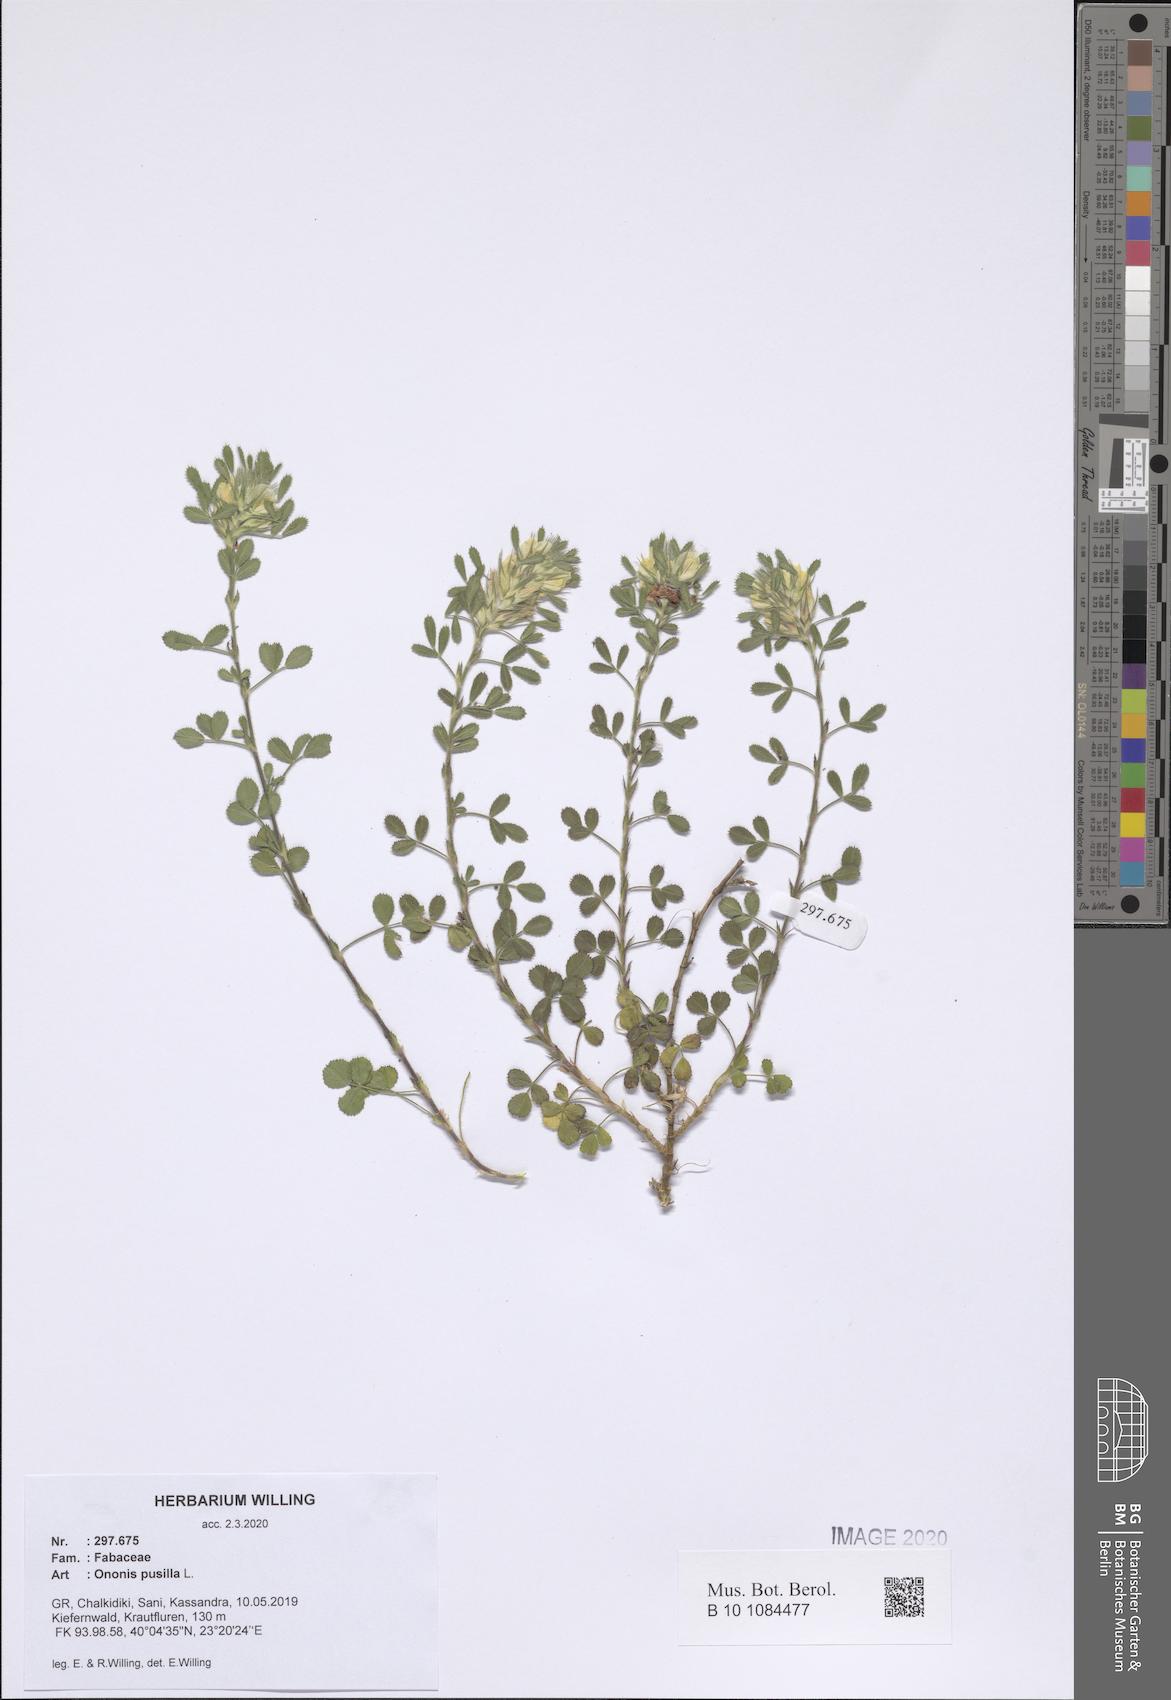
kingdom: Plantae
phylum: Tracheophyta
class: Magnoliopsida
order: Fabales
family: Fabaceae
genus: Ononis
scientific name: Ononis pusilla
